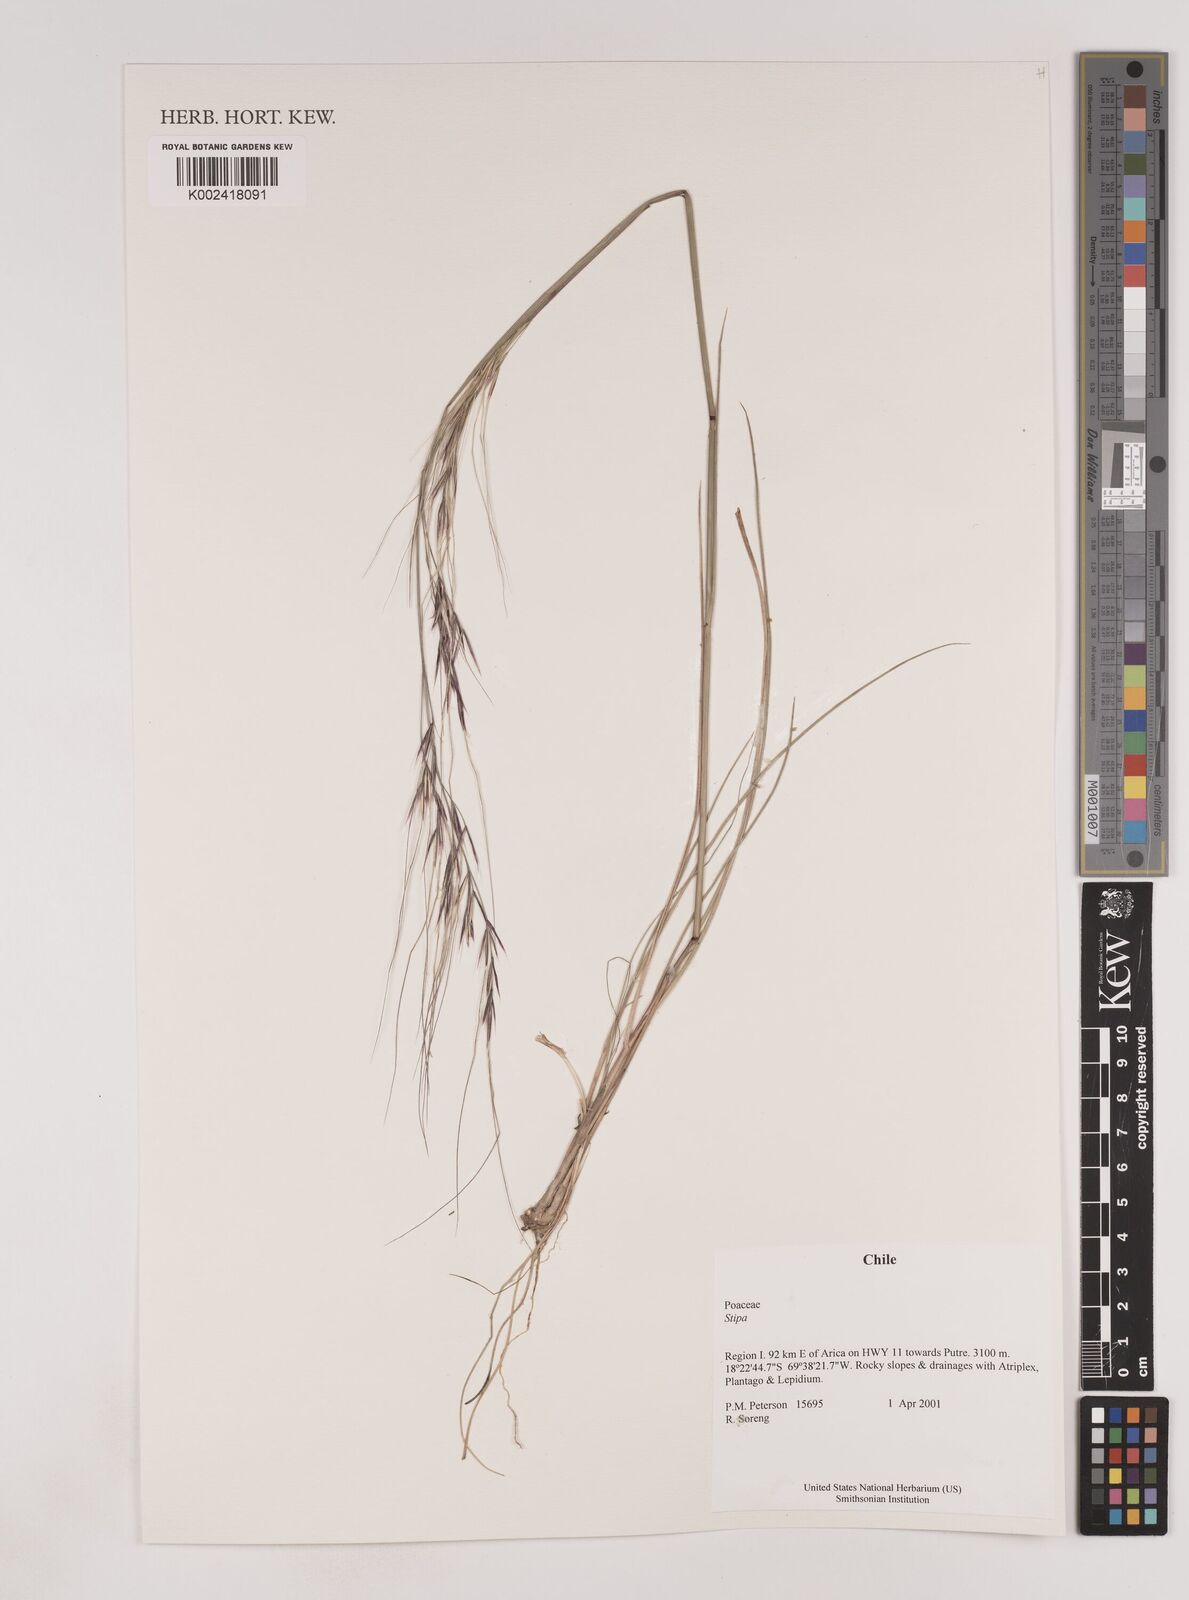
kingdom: Plantae
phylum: Tracheophyta
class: Liliopsida
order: Poales
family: Poaceae
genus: Nassella
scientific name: Nassella
